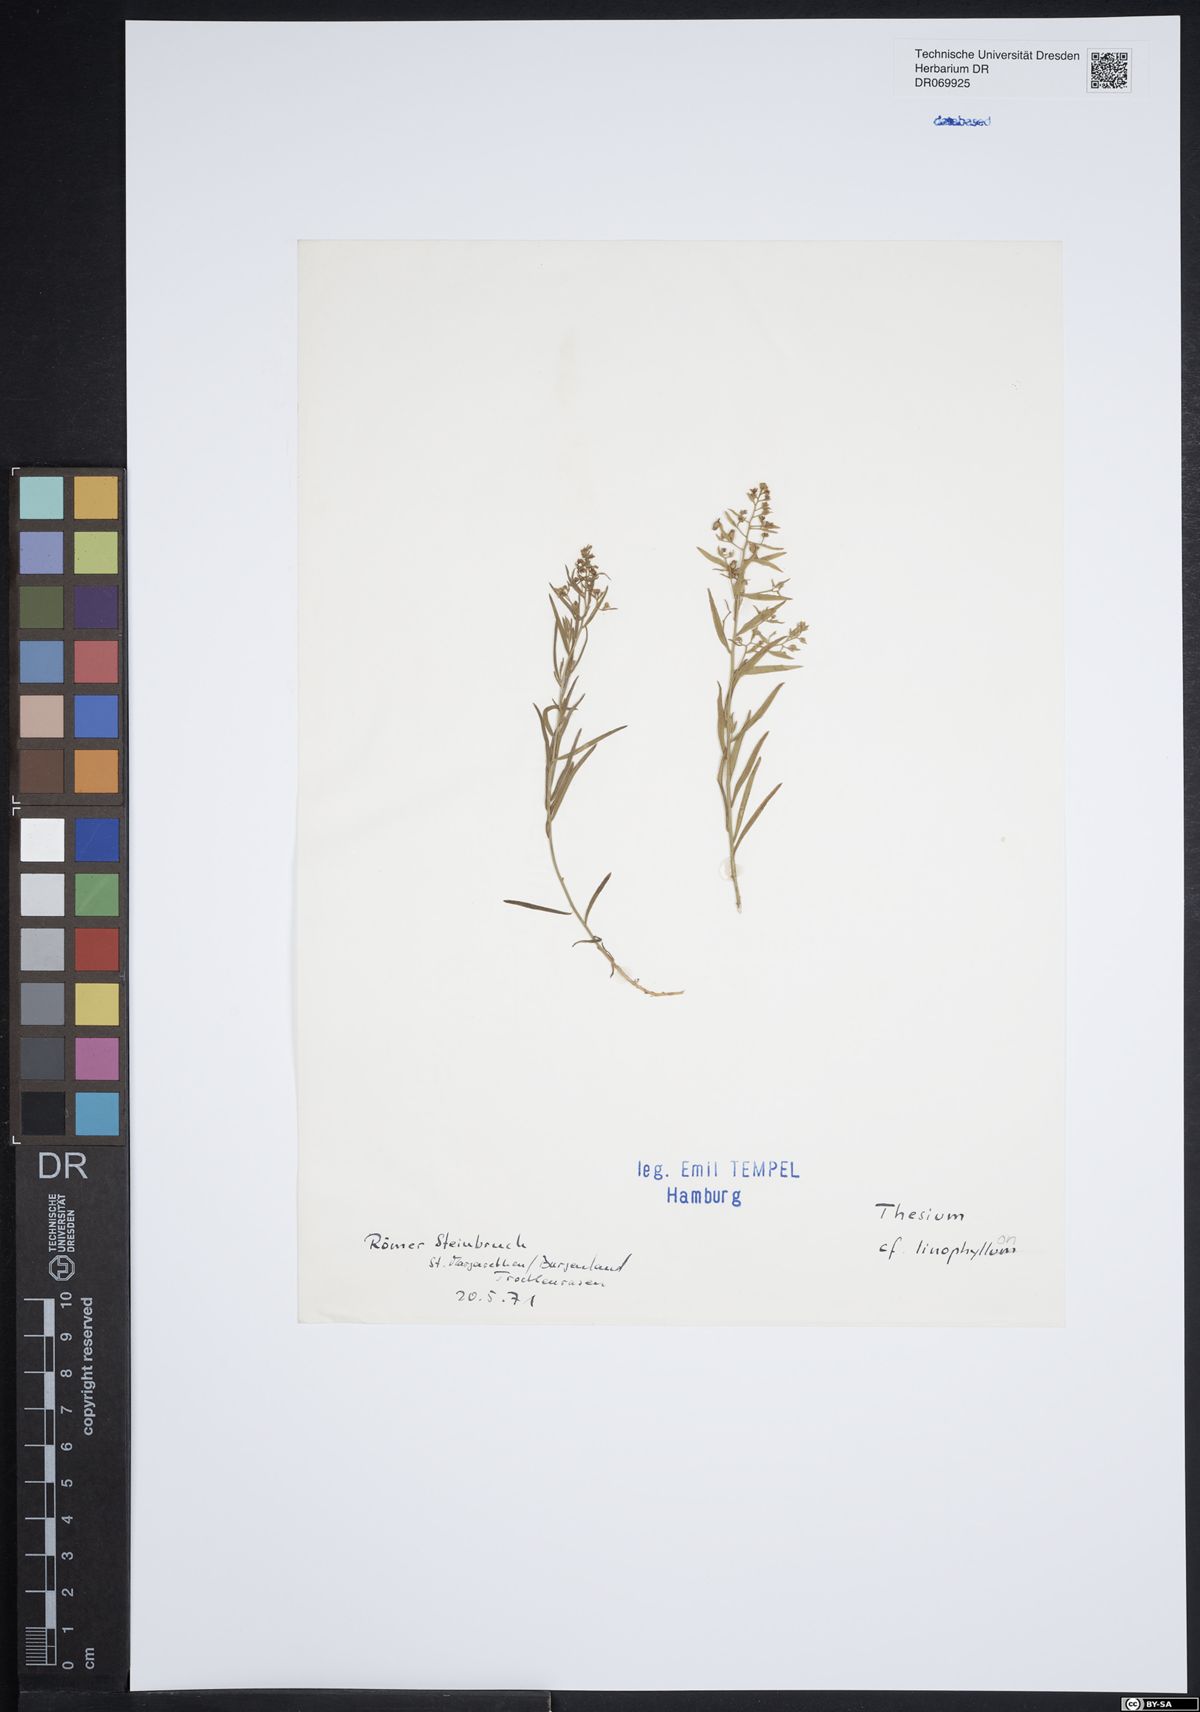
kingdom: Plantae
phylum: Tracheophyta
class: Magnoliopsida
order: Santalales
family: Thesiaceae
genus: Thesium
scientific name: Thesium linophyllon
